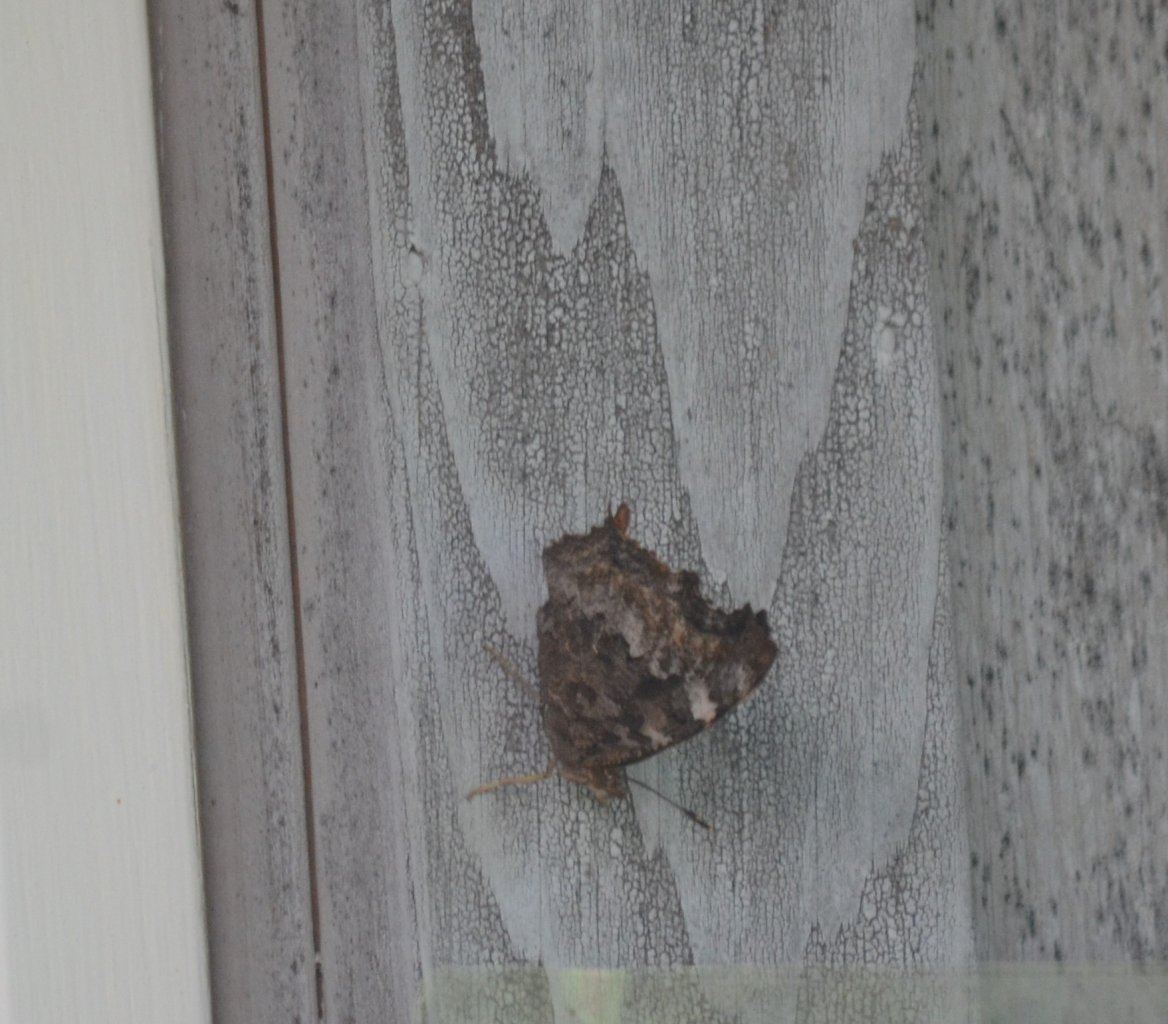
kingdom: Animalia
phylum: Arthropoda
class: Insecta
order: Lepidoptera
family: Nymphalidae
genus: Polygonia
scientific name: Polygonia vaualbum
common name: Compton Tortoiseshell
